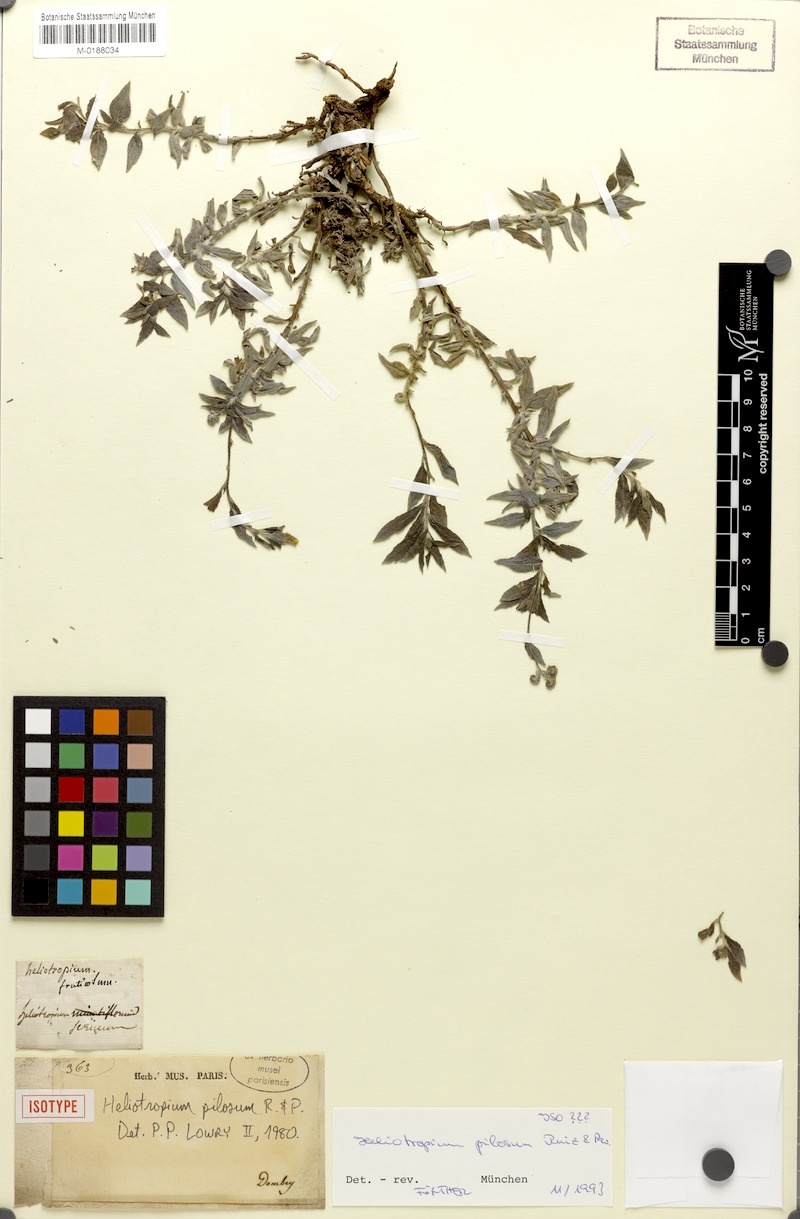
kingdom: Plantae
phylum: Tracheophyta
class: Magnoliopsida
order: Boraginales
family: Heliotropiaceae
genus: Euploca
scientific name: Euploca pilosa
